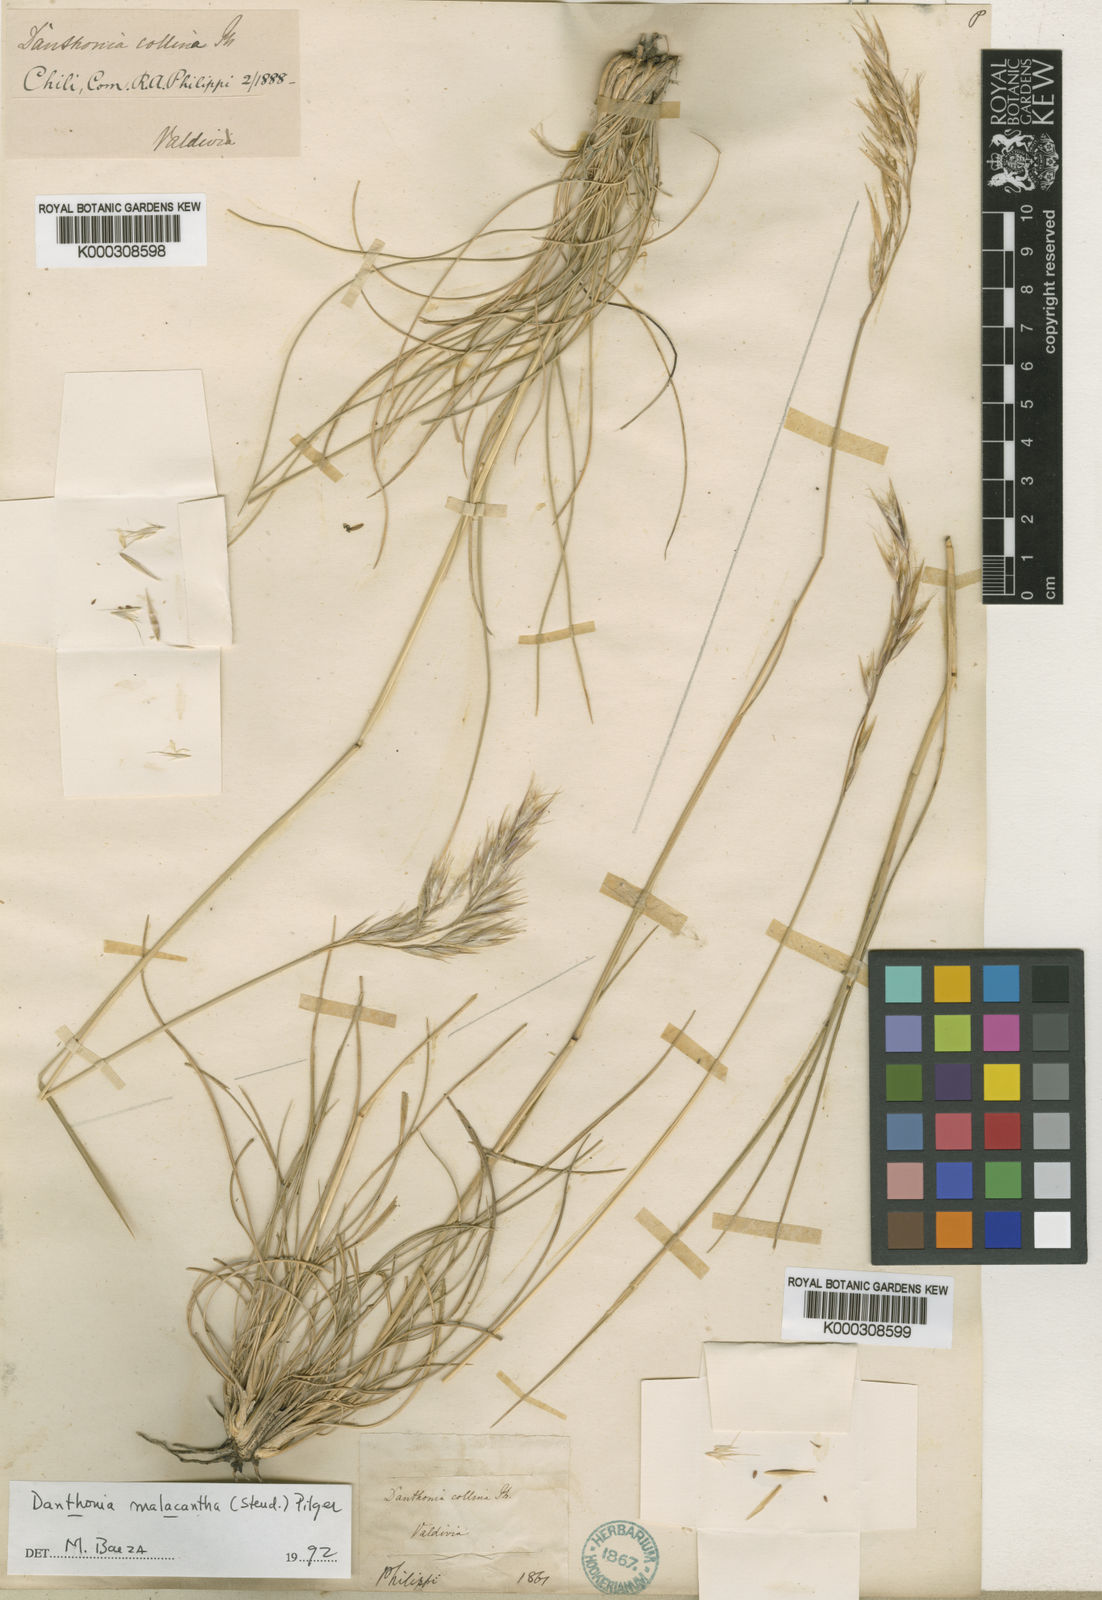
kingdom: Plantae
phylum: Tracheophyta
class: Liliopsida
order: Poales
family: Poaceae
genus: Danthonia
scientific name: Danthonia malacantha
